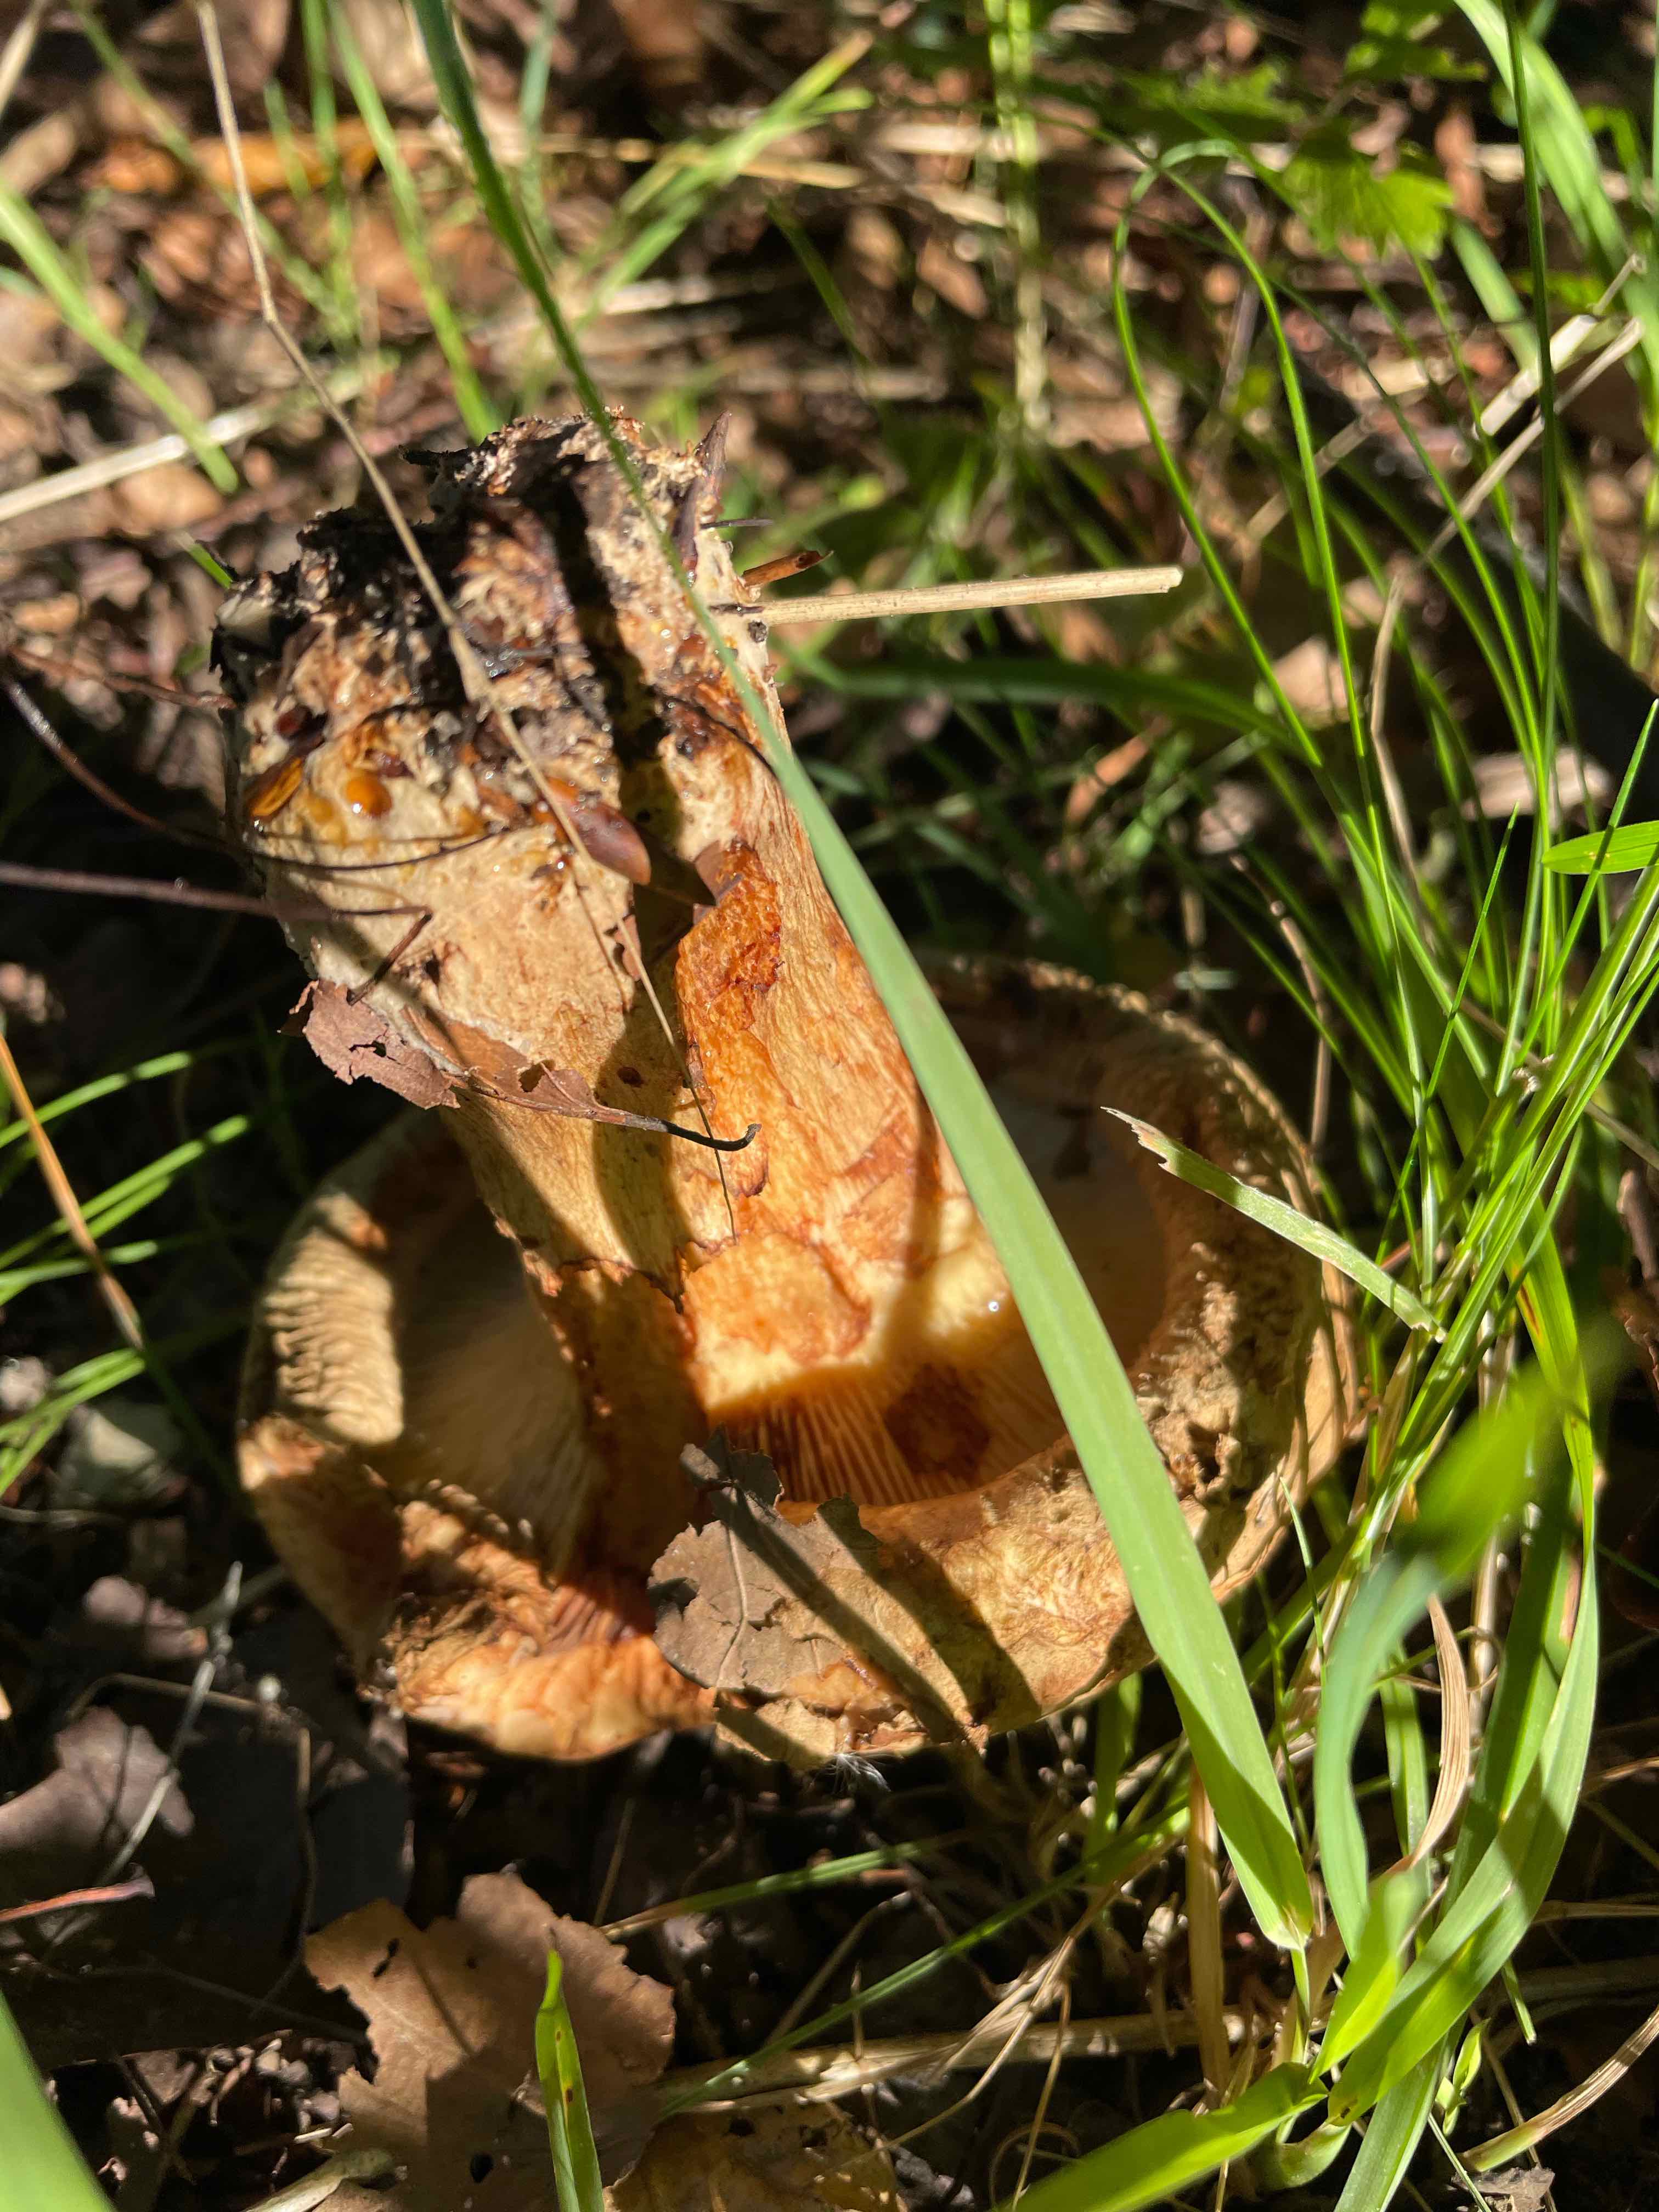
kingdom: Fungi
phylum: Basidiomycota
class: Agaricomycetes
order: Boletales
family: Paxillaceae
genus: Paxillus
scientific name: Paxillus involutus
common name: almindelig netbladhat
